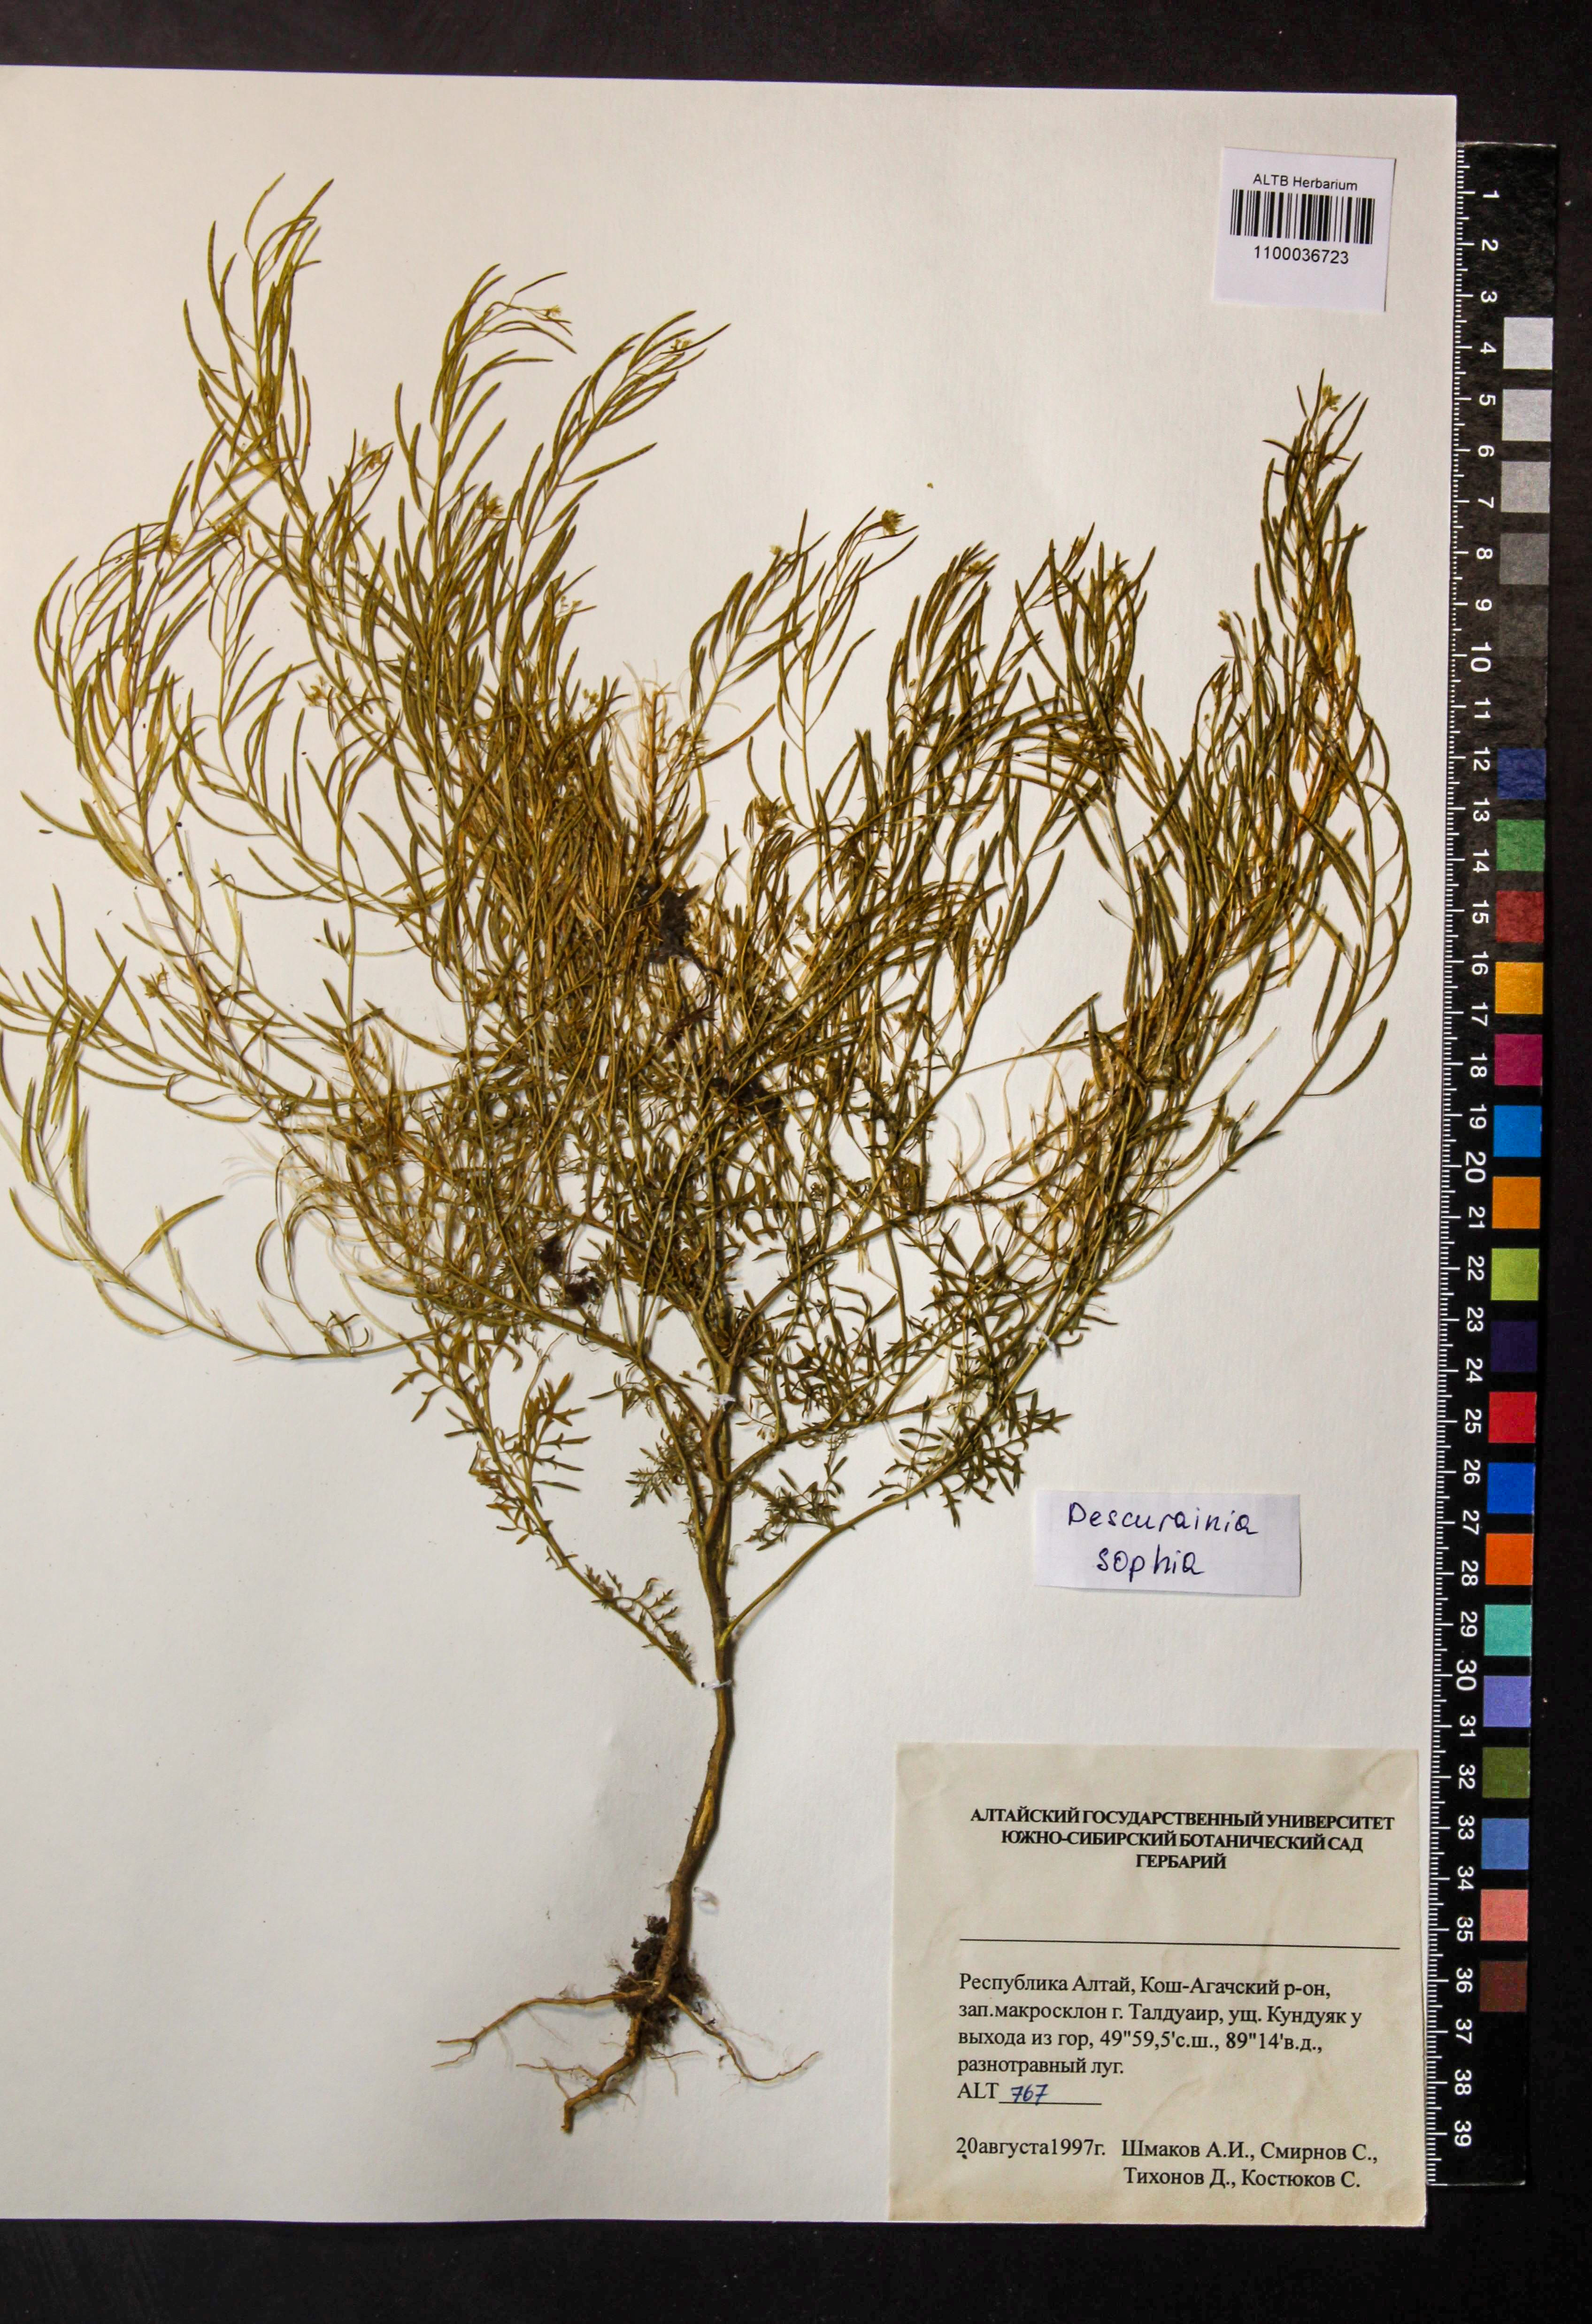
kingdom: Plantae
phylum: Tracheophyta
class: Magnoliopsida
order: Brassicales
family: Brassicaceae
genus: Descurainia
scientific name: Descurainia sophia
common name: Flixweed
